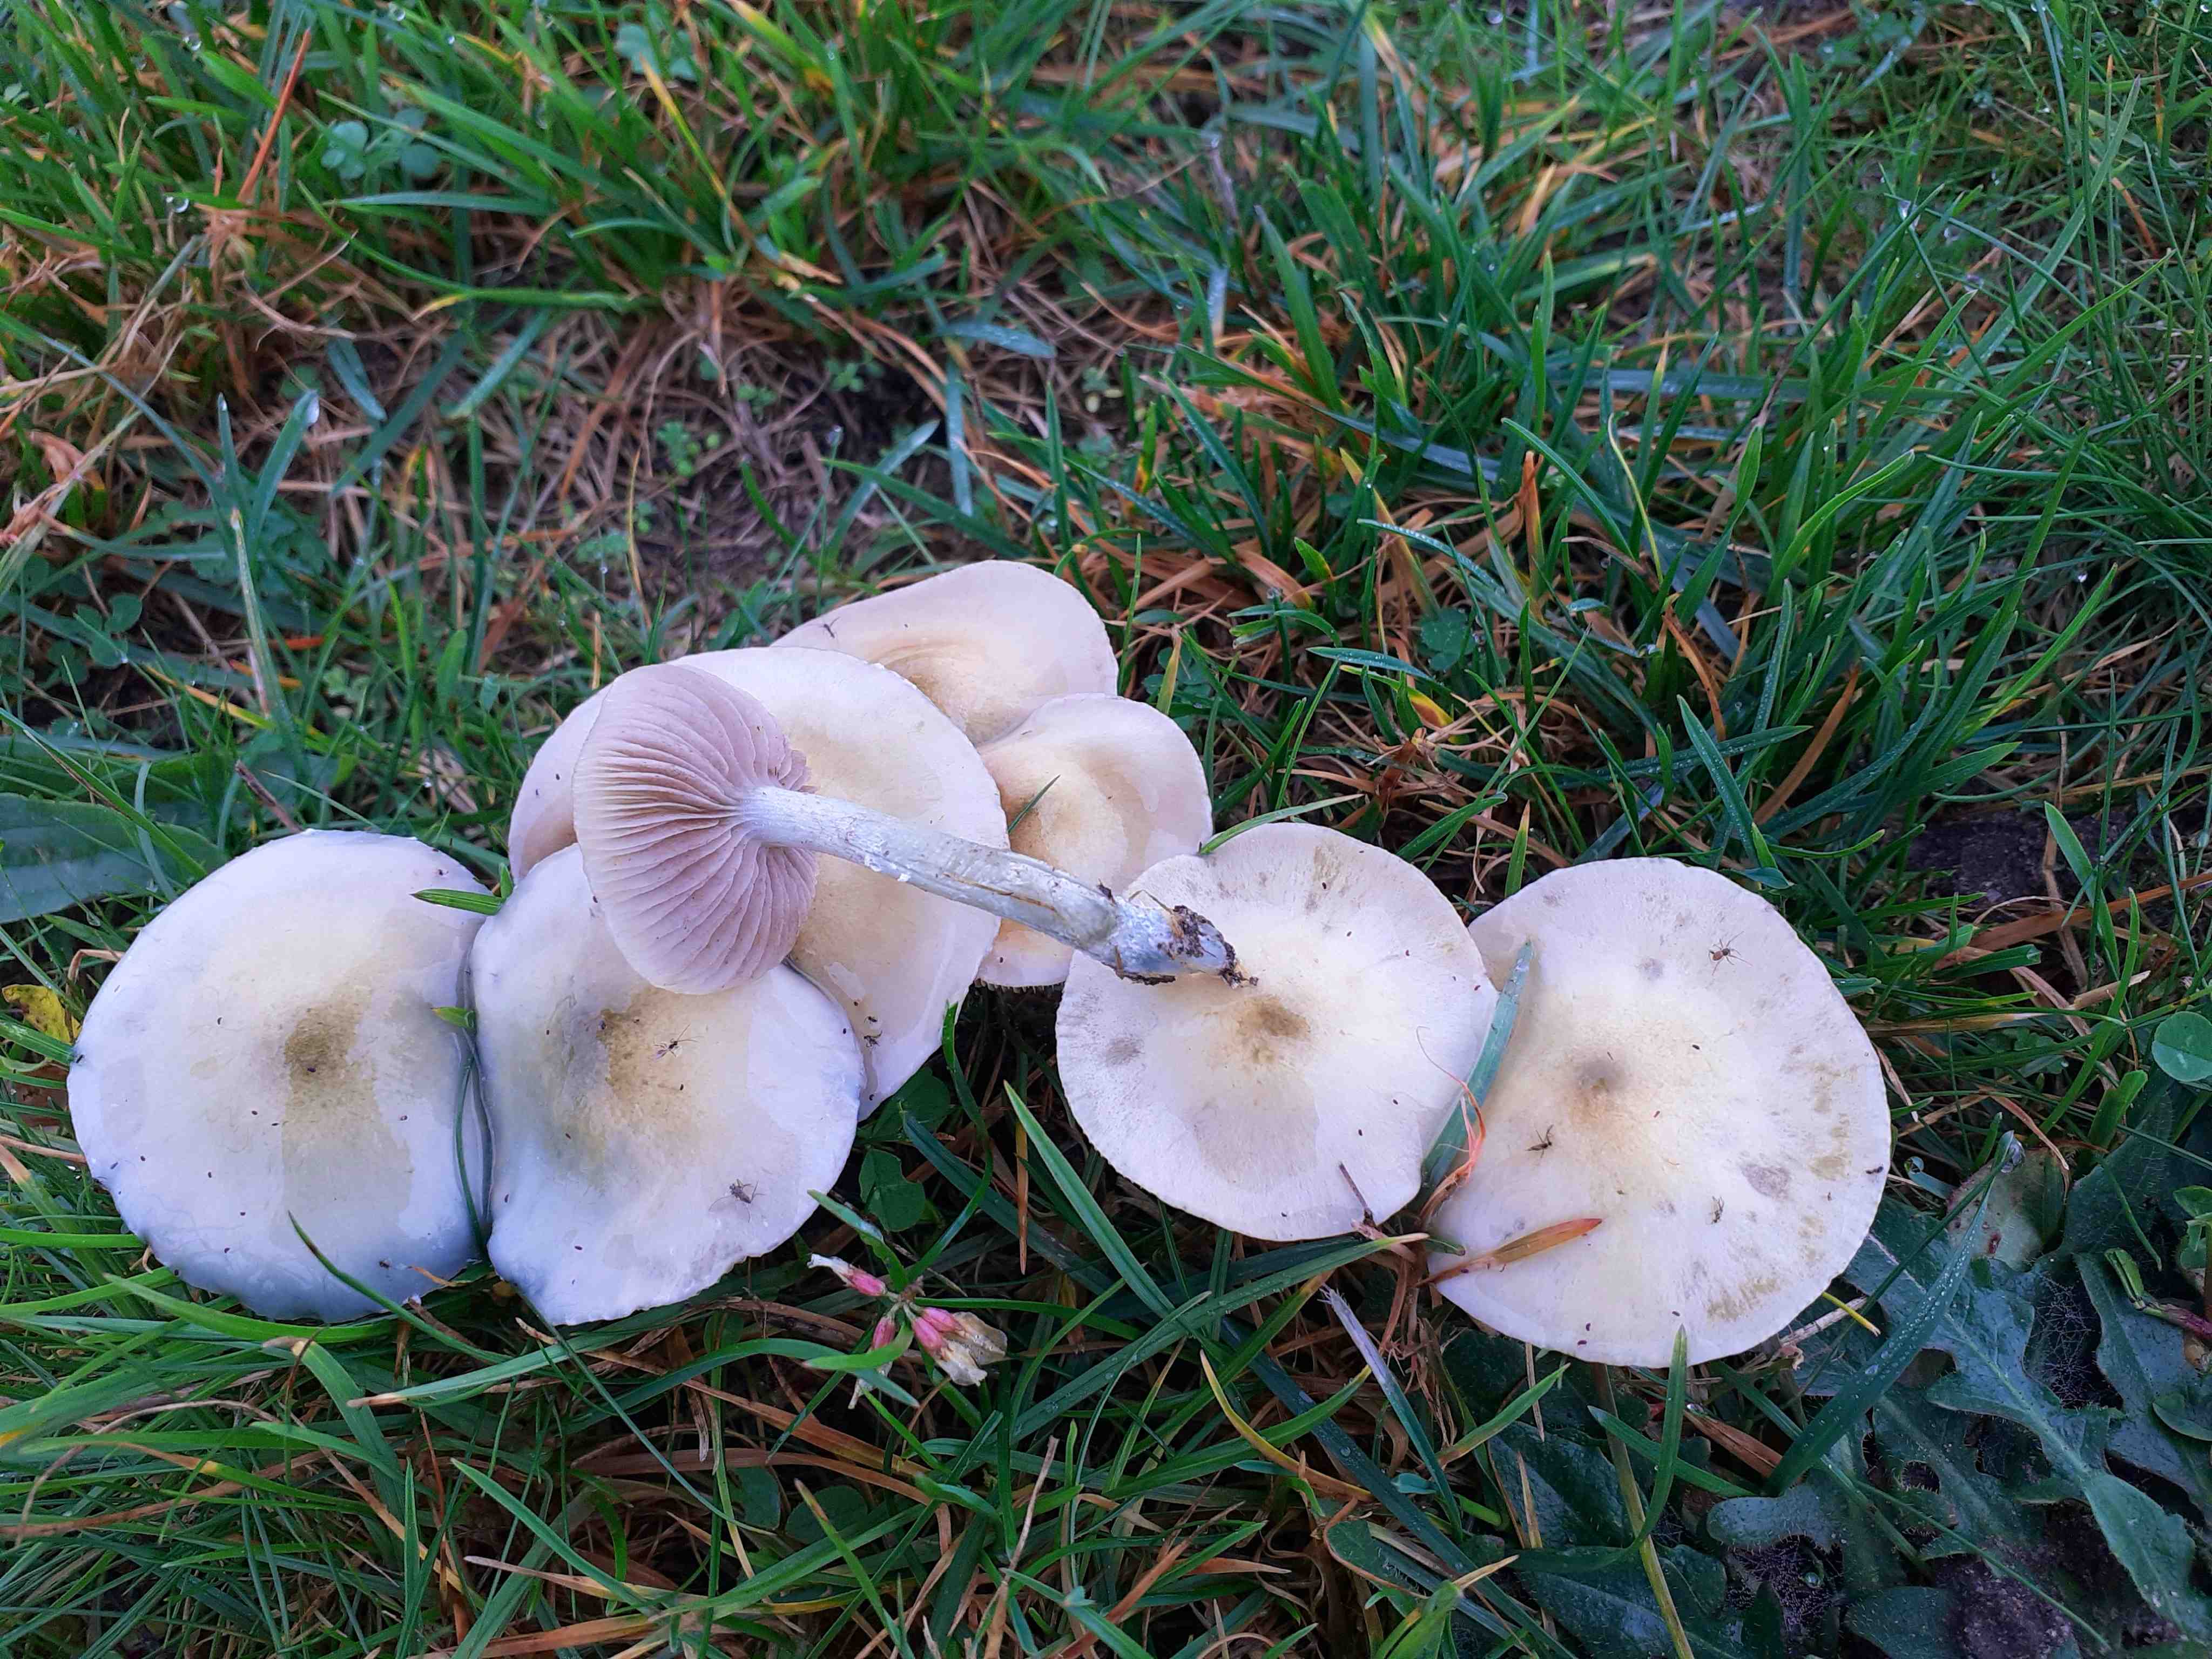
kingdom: Fungi
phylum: Basidiomycota
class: Agaricomycetes
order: Agaricales
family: Strophariaceae
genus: Stropharia
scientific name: Stropharia cyanea
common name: blågrøn bredblad
